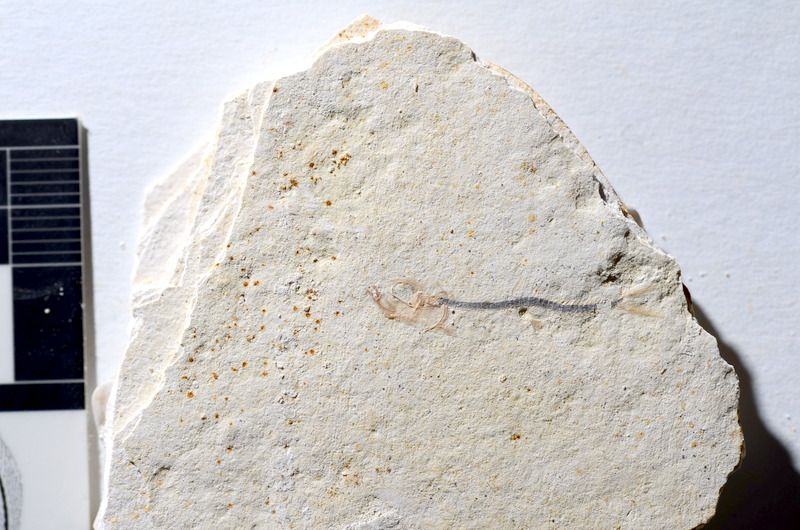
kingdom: Animalia
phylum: Chordata
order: Salmoniformes
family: Orthogonikleithridae
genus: Orthogonikleithrus
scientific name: Orthogonikleithrus hoelli
